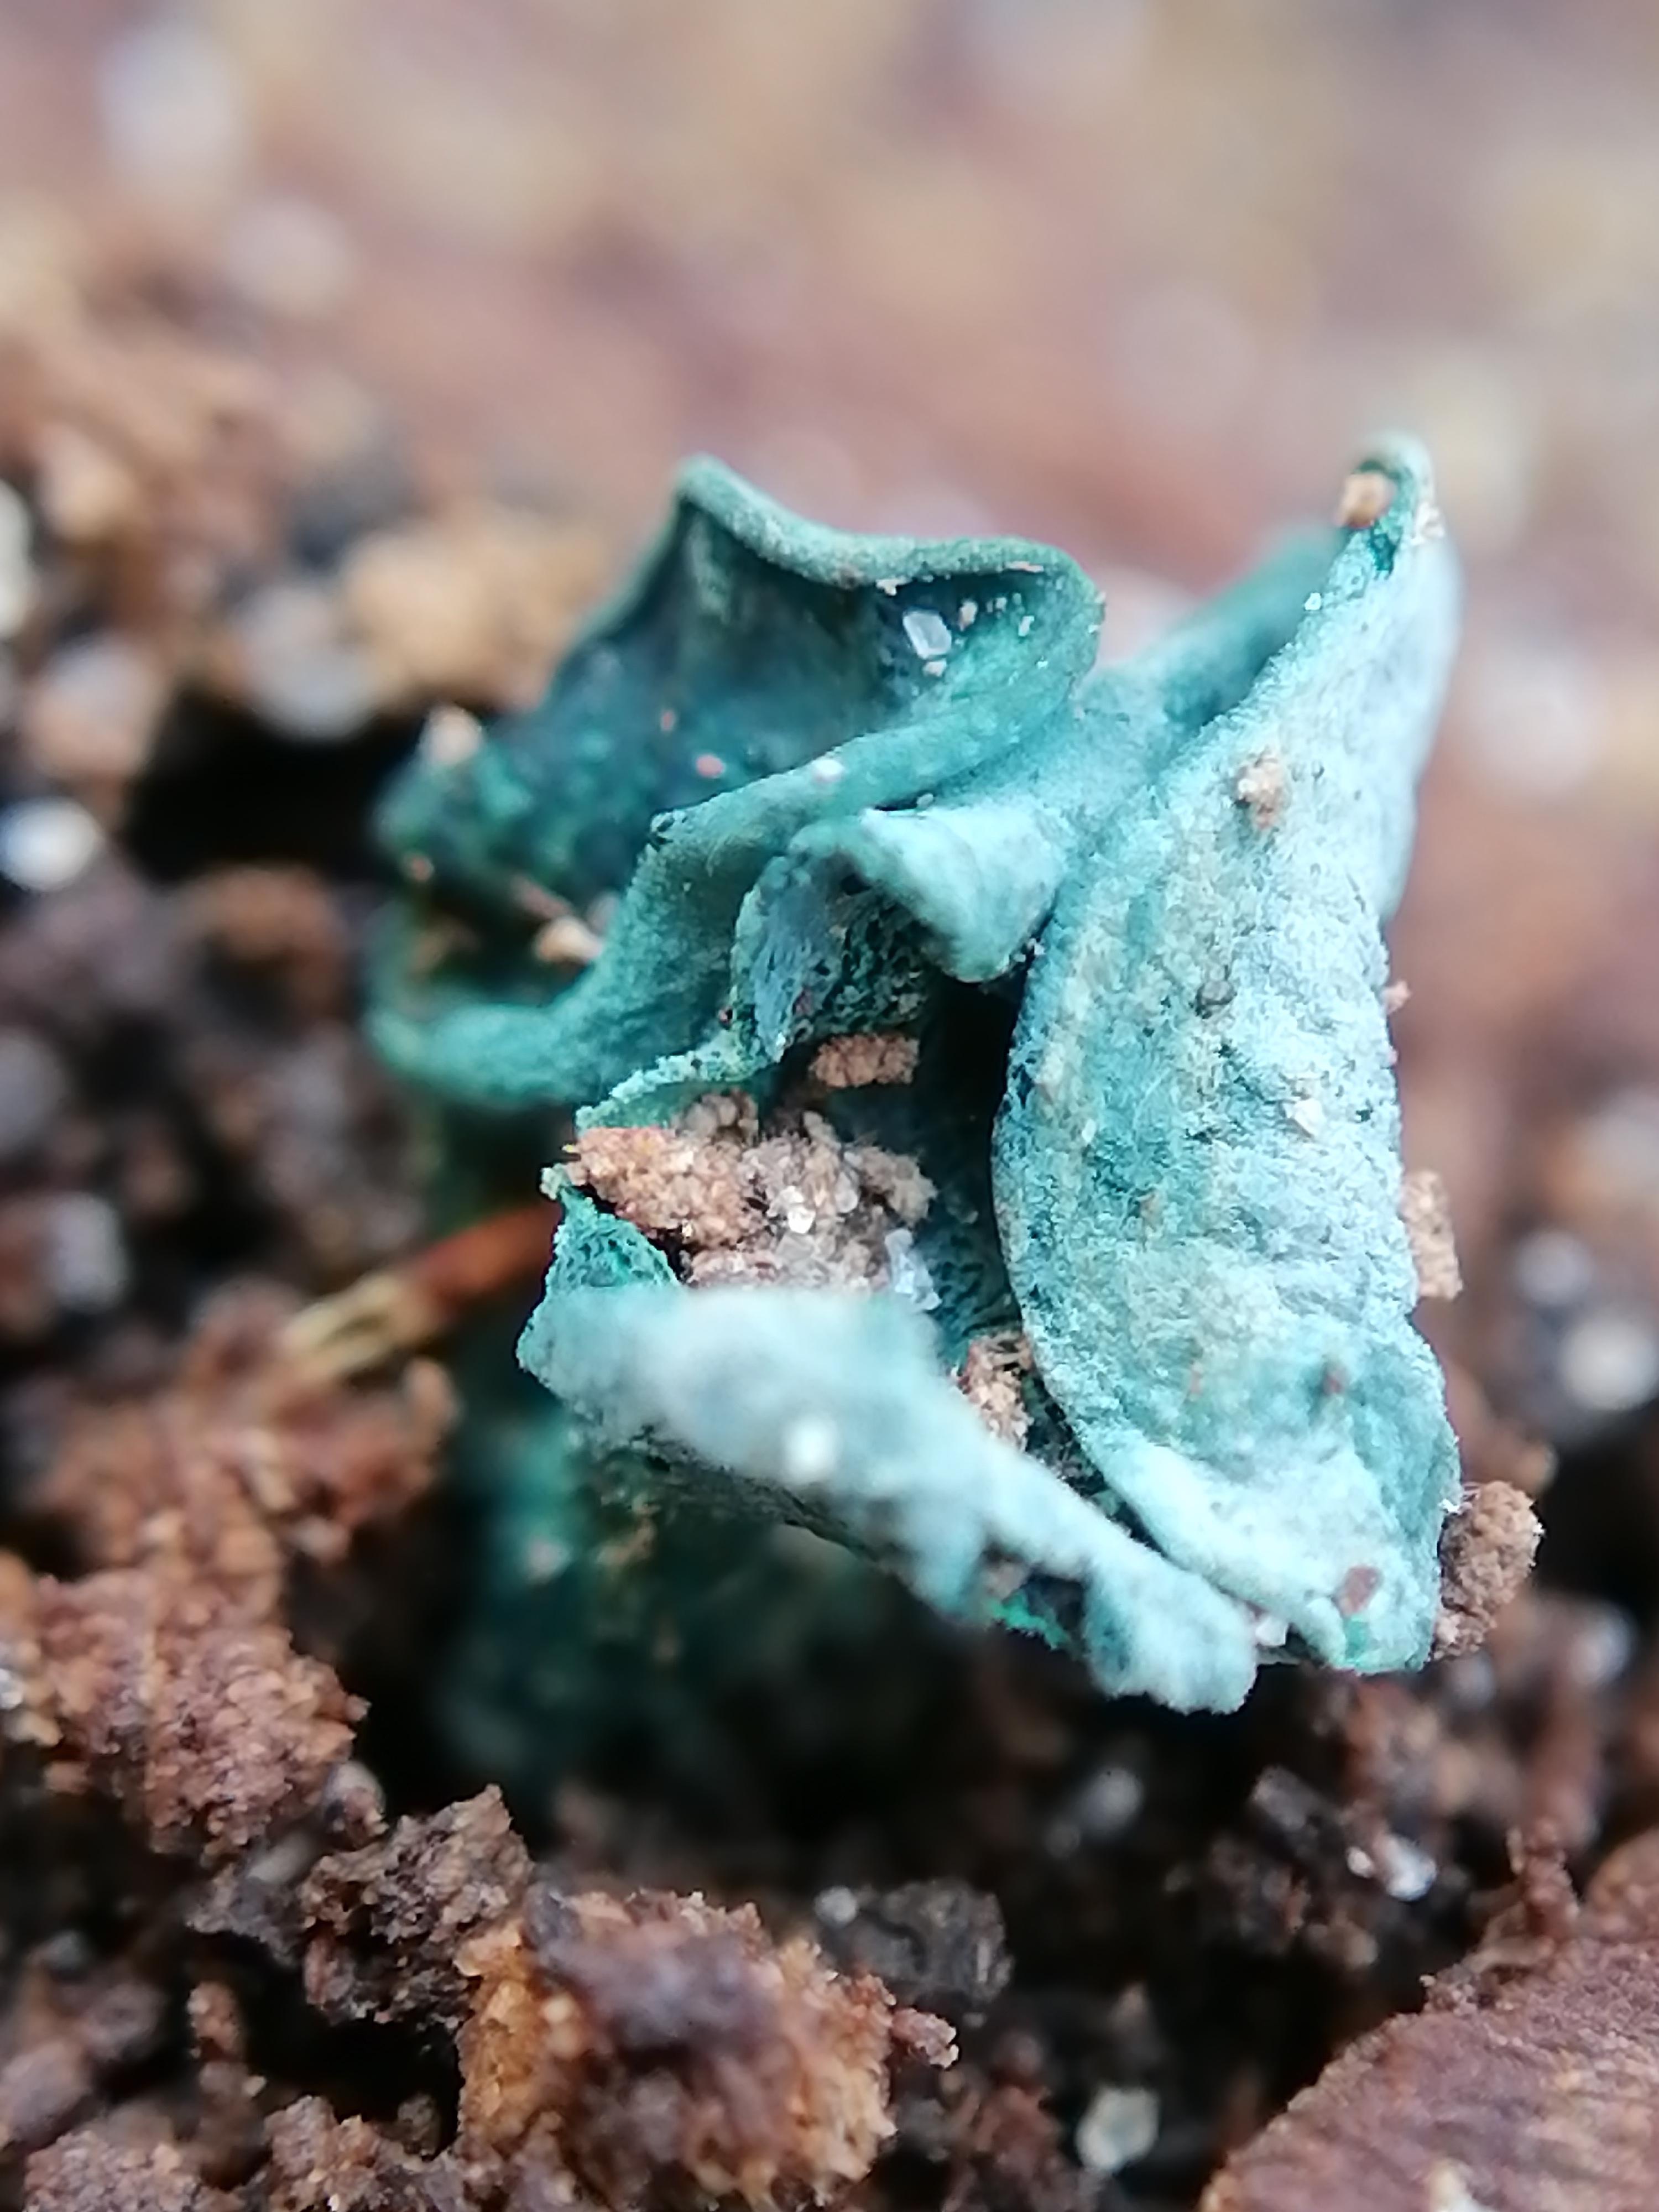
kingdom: Fungi
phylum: Ascomycota
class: Leotiomycetes
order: Helotiales
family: Chlorociboriaceae
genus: Chlorociboria
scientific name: Chlorociboria aeruginascens
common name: almindelig grønskive
